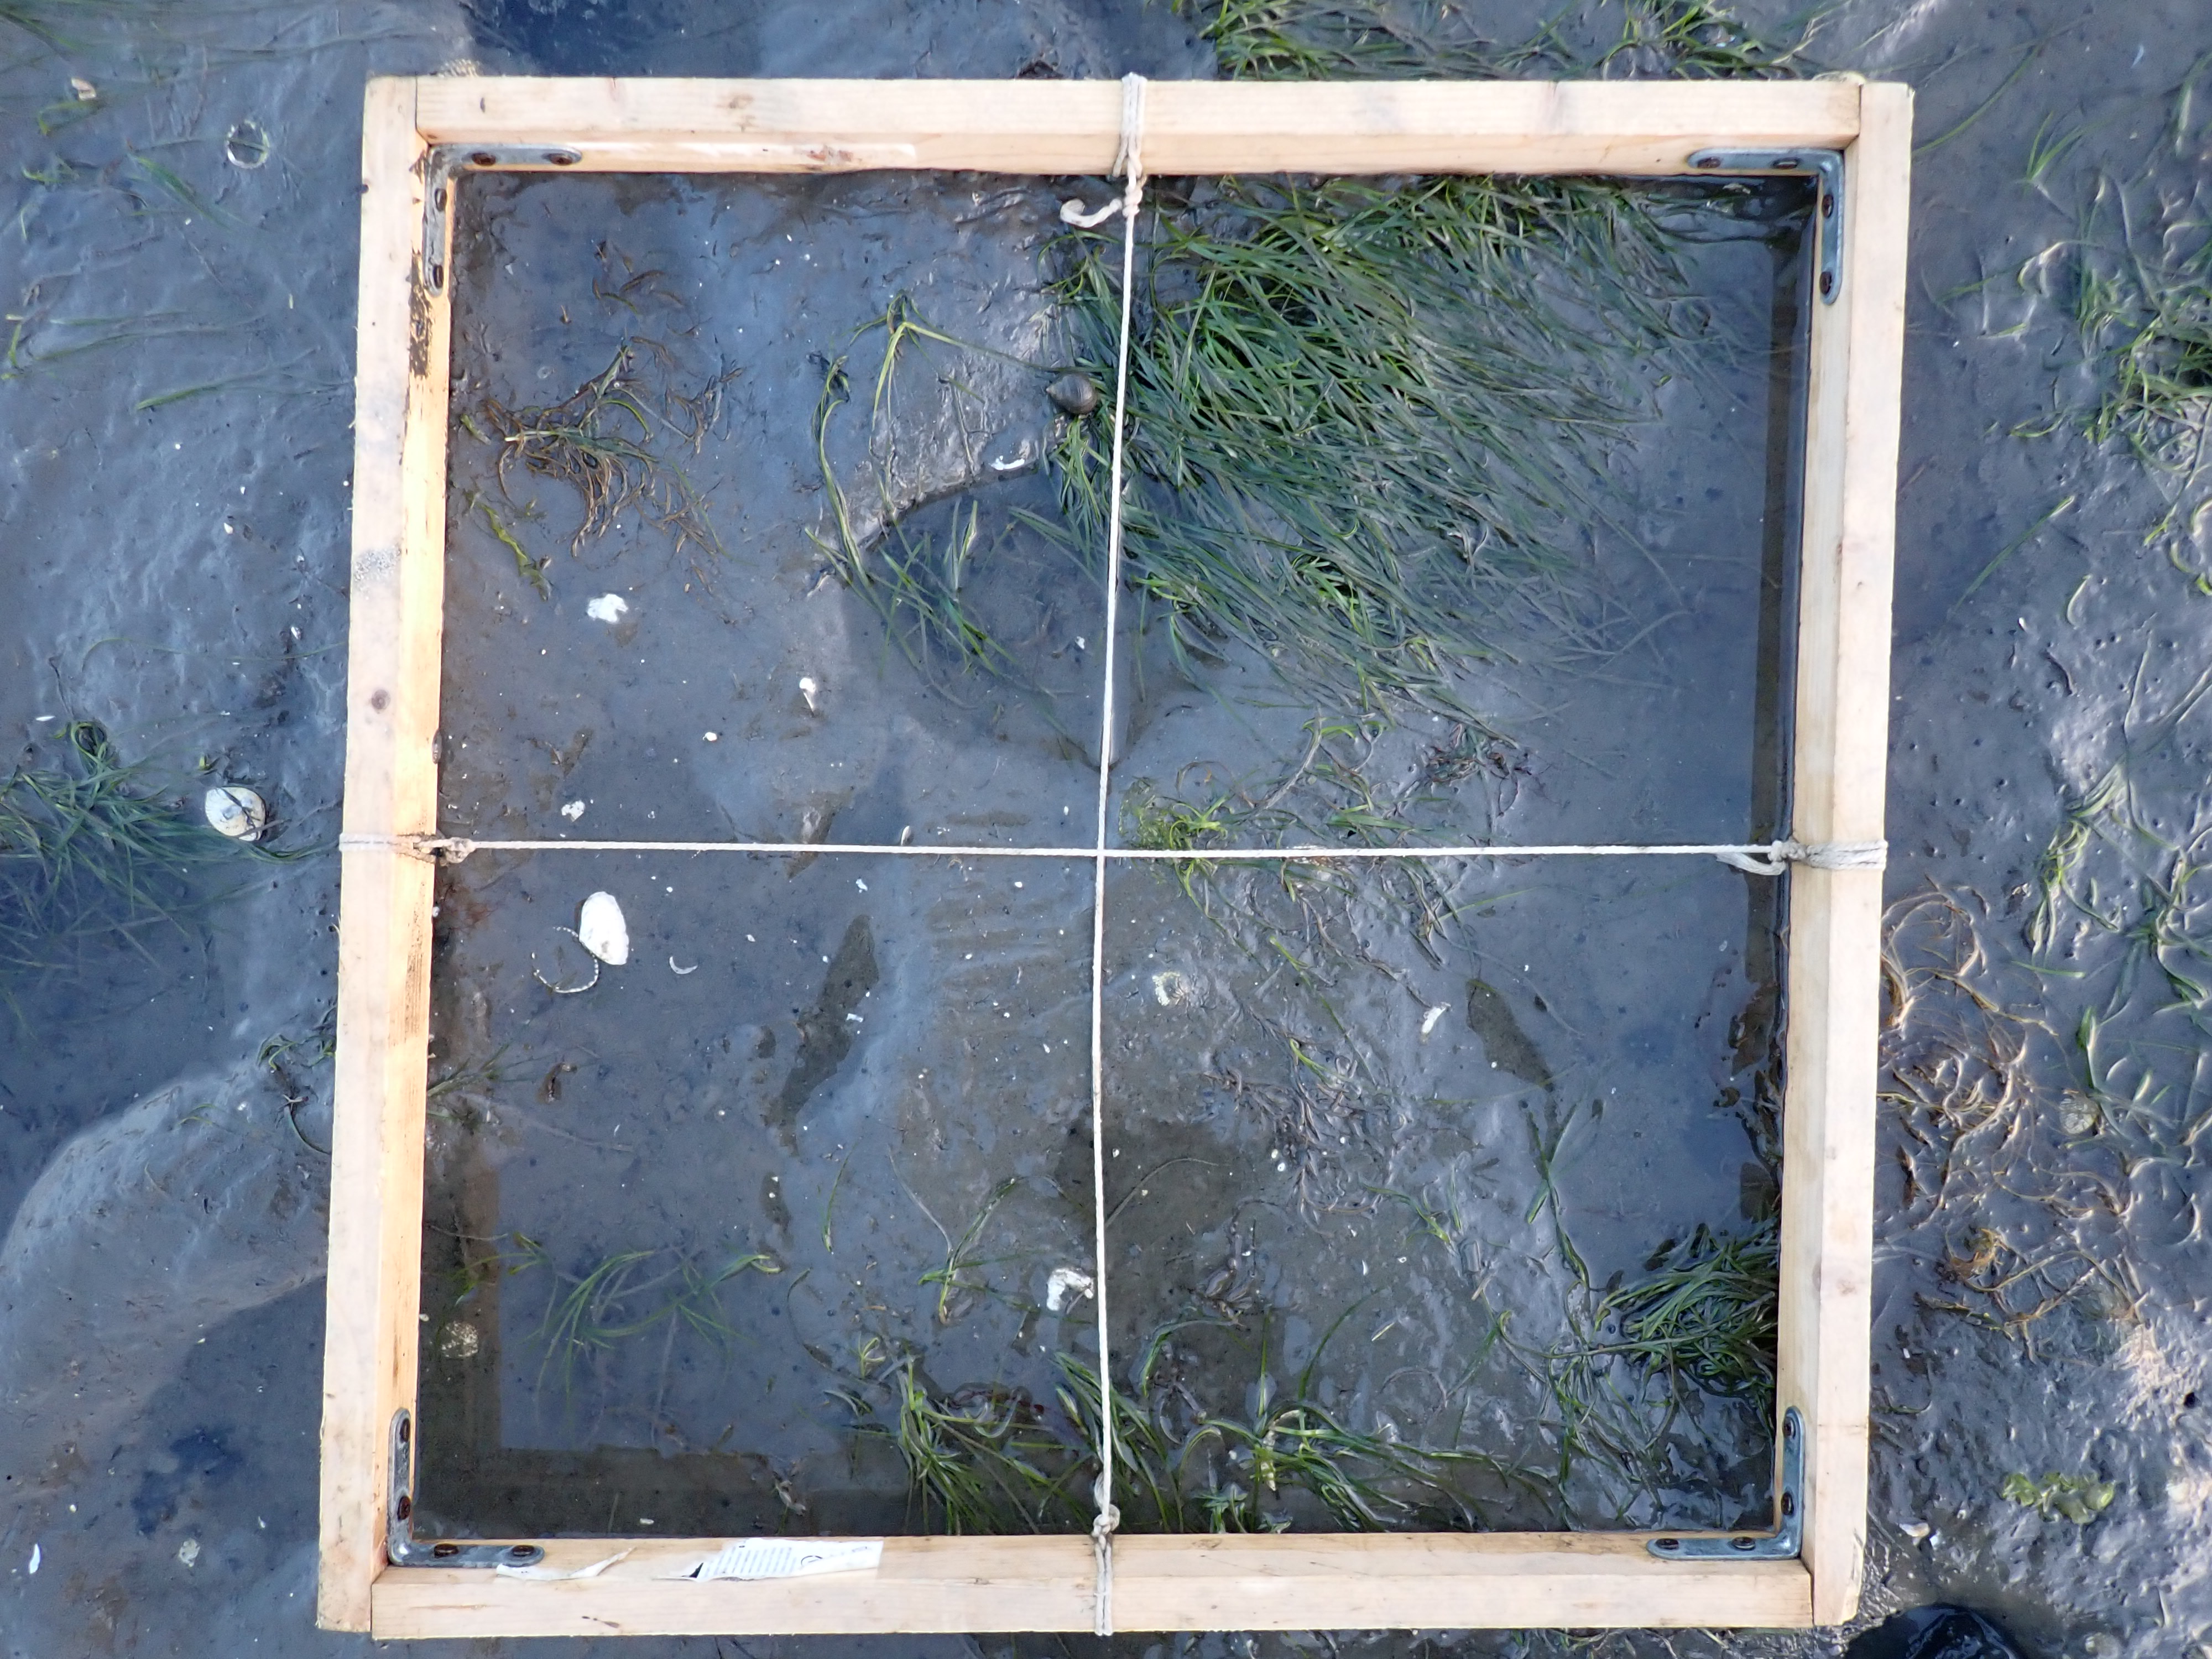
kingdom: Plantae
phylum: Rhodophyta
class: Florideophyceae
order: Gracilariales
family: Gracilariaceae
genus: Gracilaria
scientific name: Gracilaria vermiculophylla
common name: Algae
